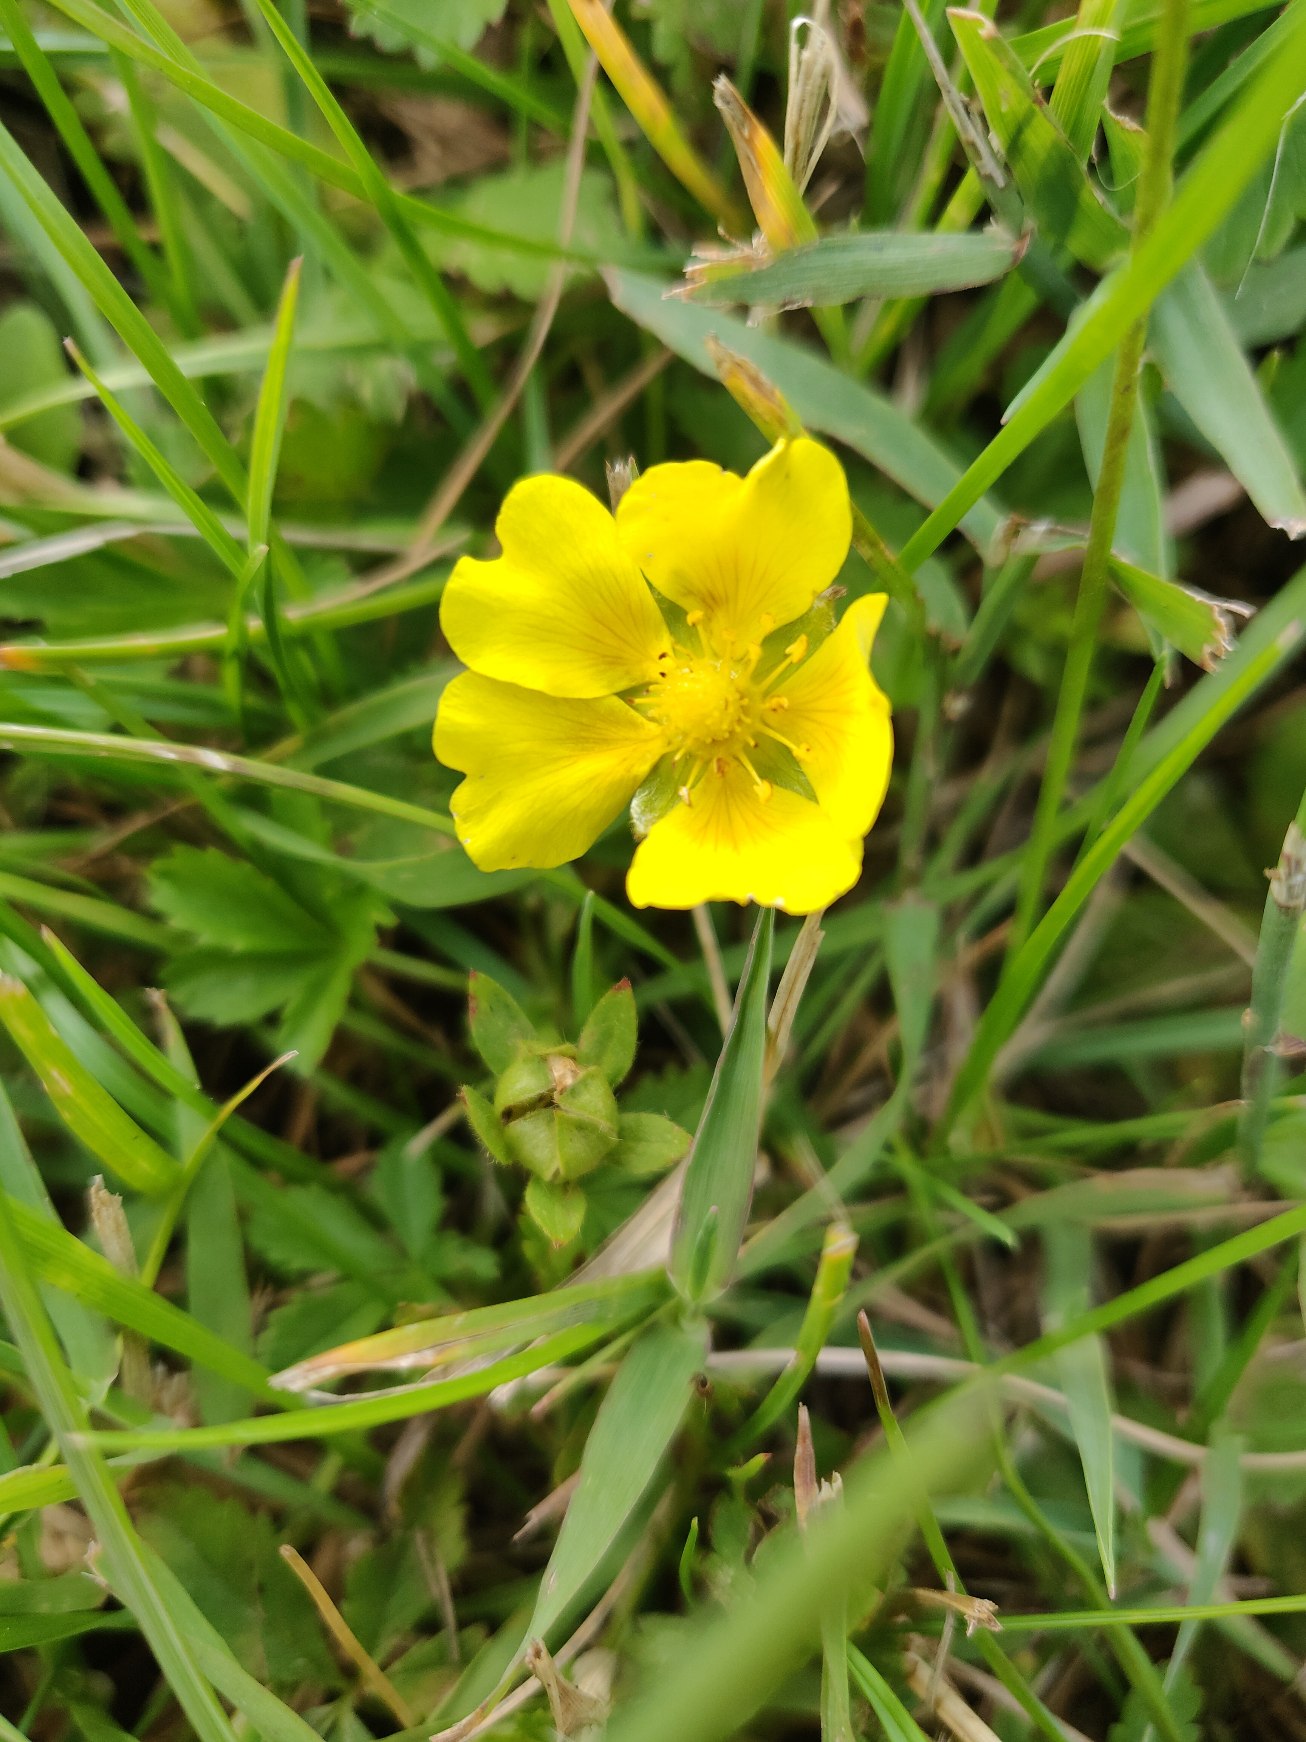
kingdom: Plantae
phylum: Tracheophyta
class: Magnoliopsida
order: Rosales
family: Rosaceae
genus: Potentilla
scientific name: Potentilla reptans
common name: Krybende potentil
